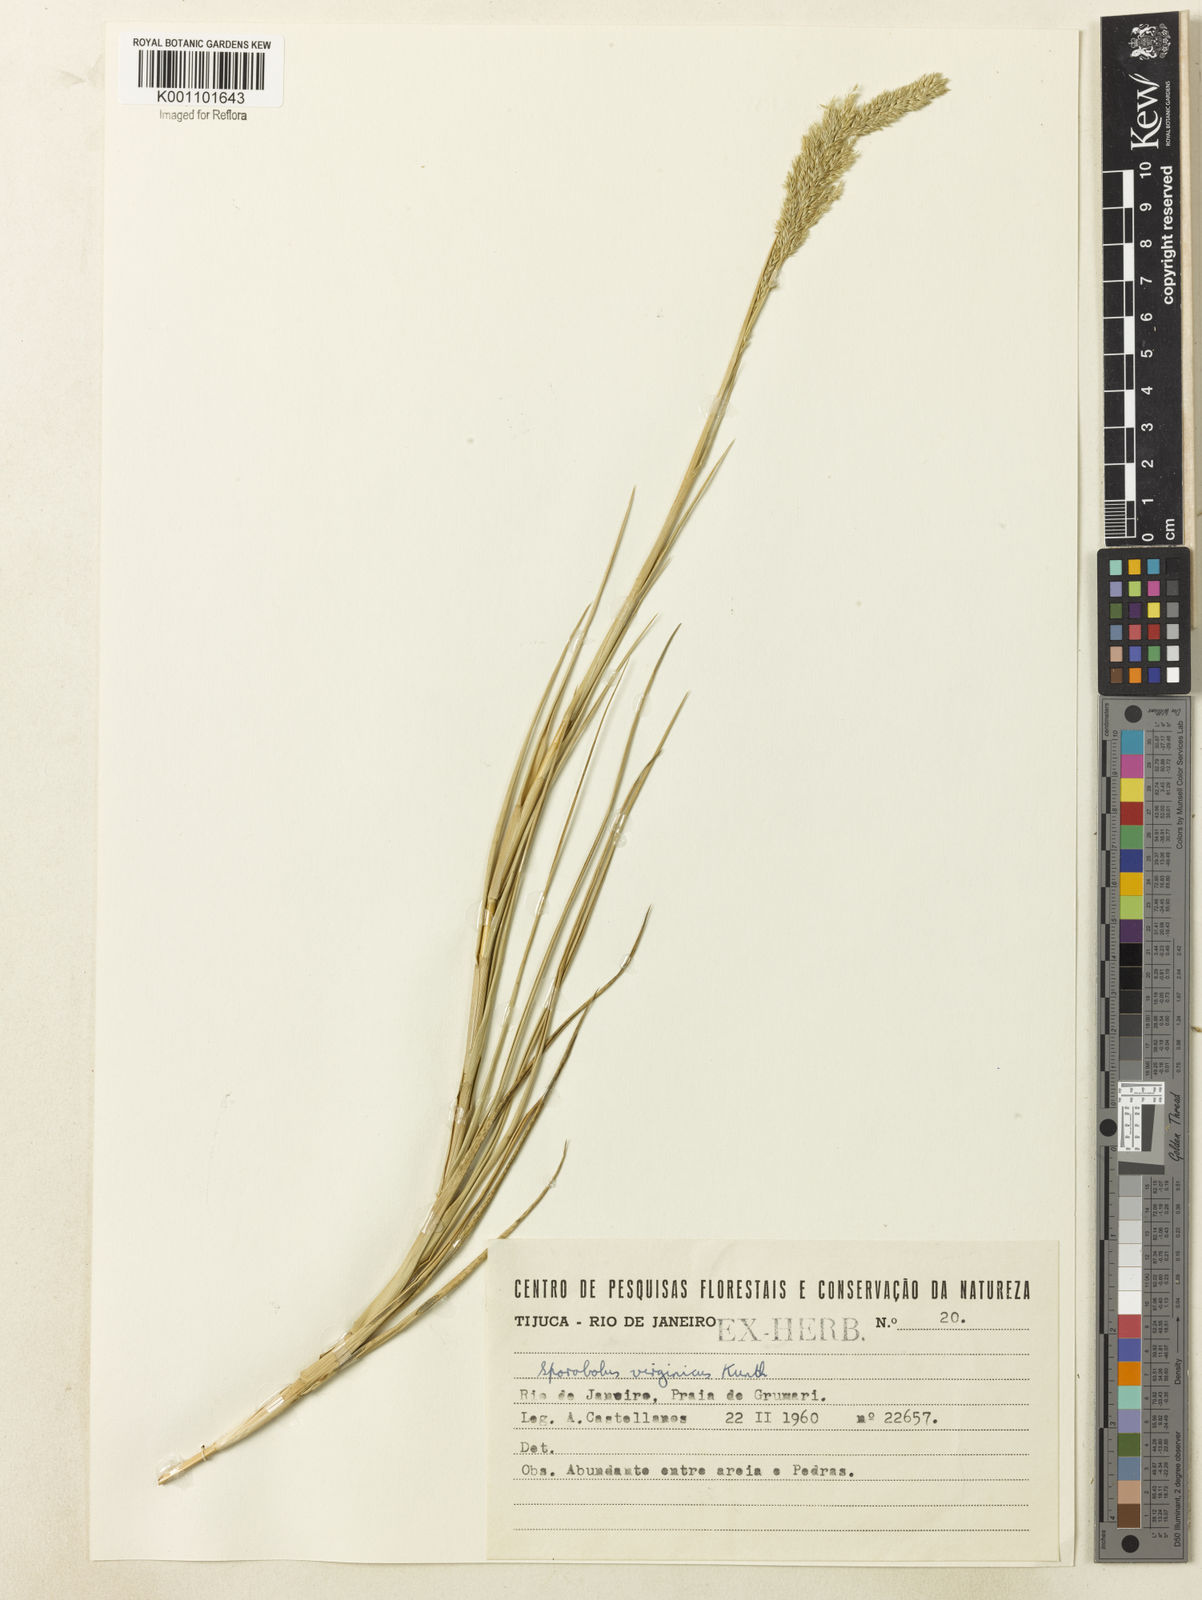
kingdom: Plantae
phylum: Tracheophyta
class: Liliopsida
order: Poales
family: Poaceae
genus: Sporobolus
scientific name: Sporobolus virginicus
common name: Beach dropseed
